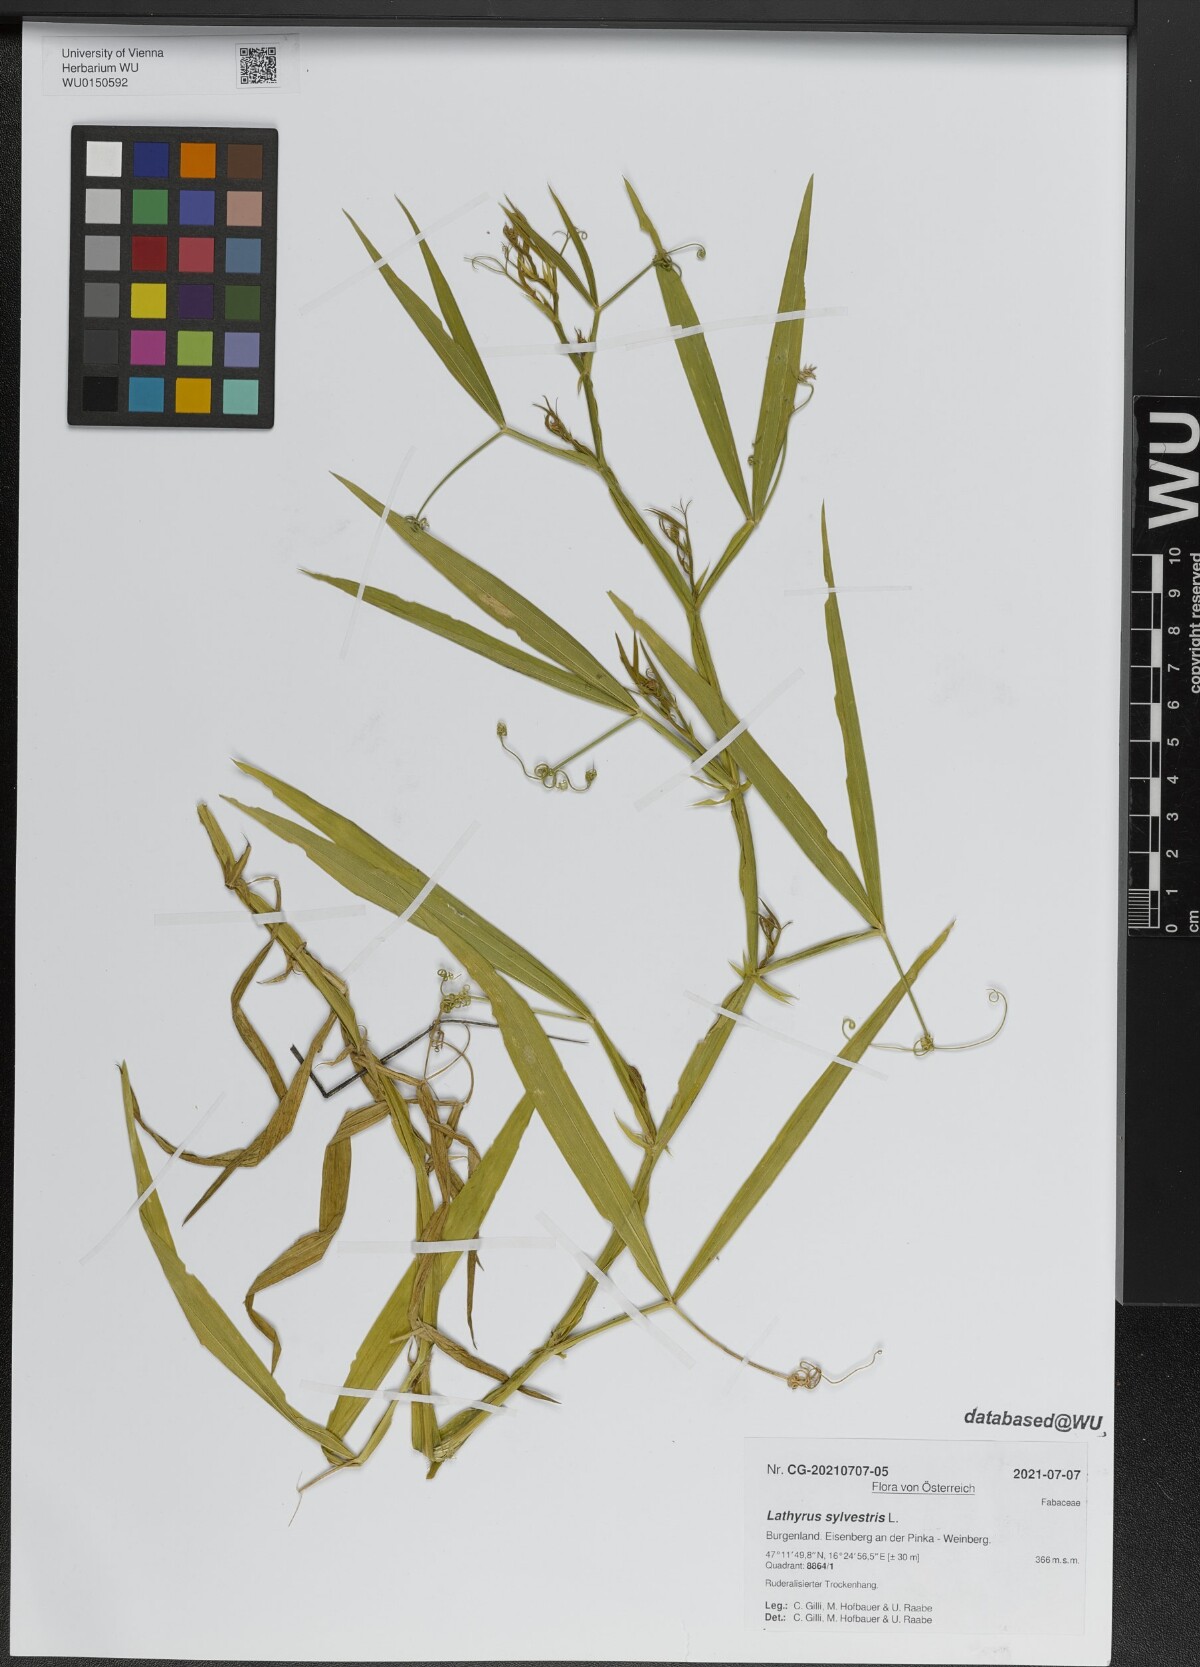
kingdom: Plantae
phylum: Tracheophyta
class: Magnoliopsida
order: Fabales
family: Fabaceae
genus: Lathyrus
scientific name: Lathyrus sylvestris
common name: Flat pea
